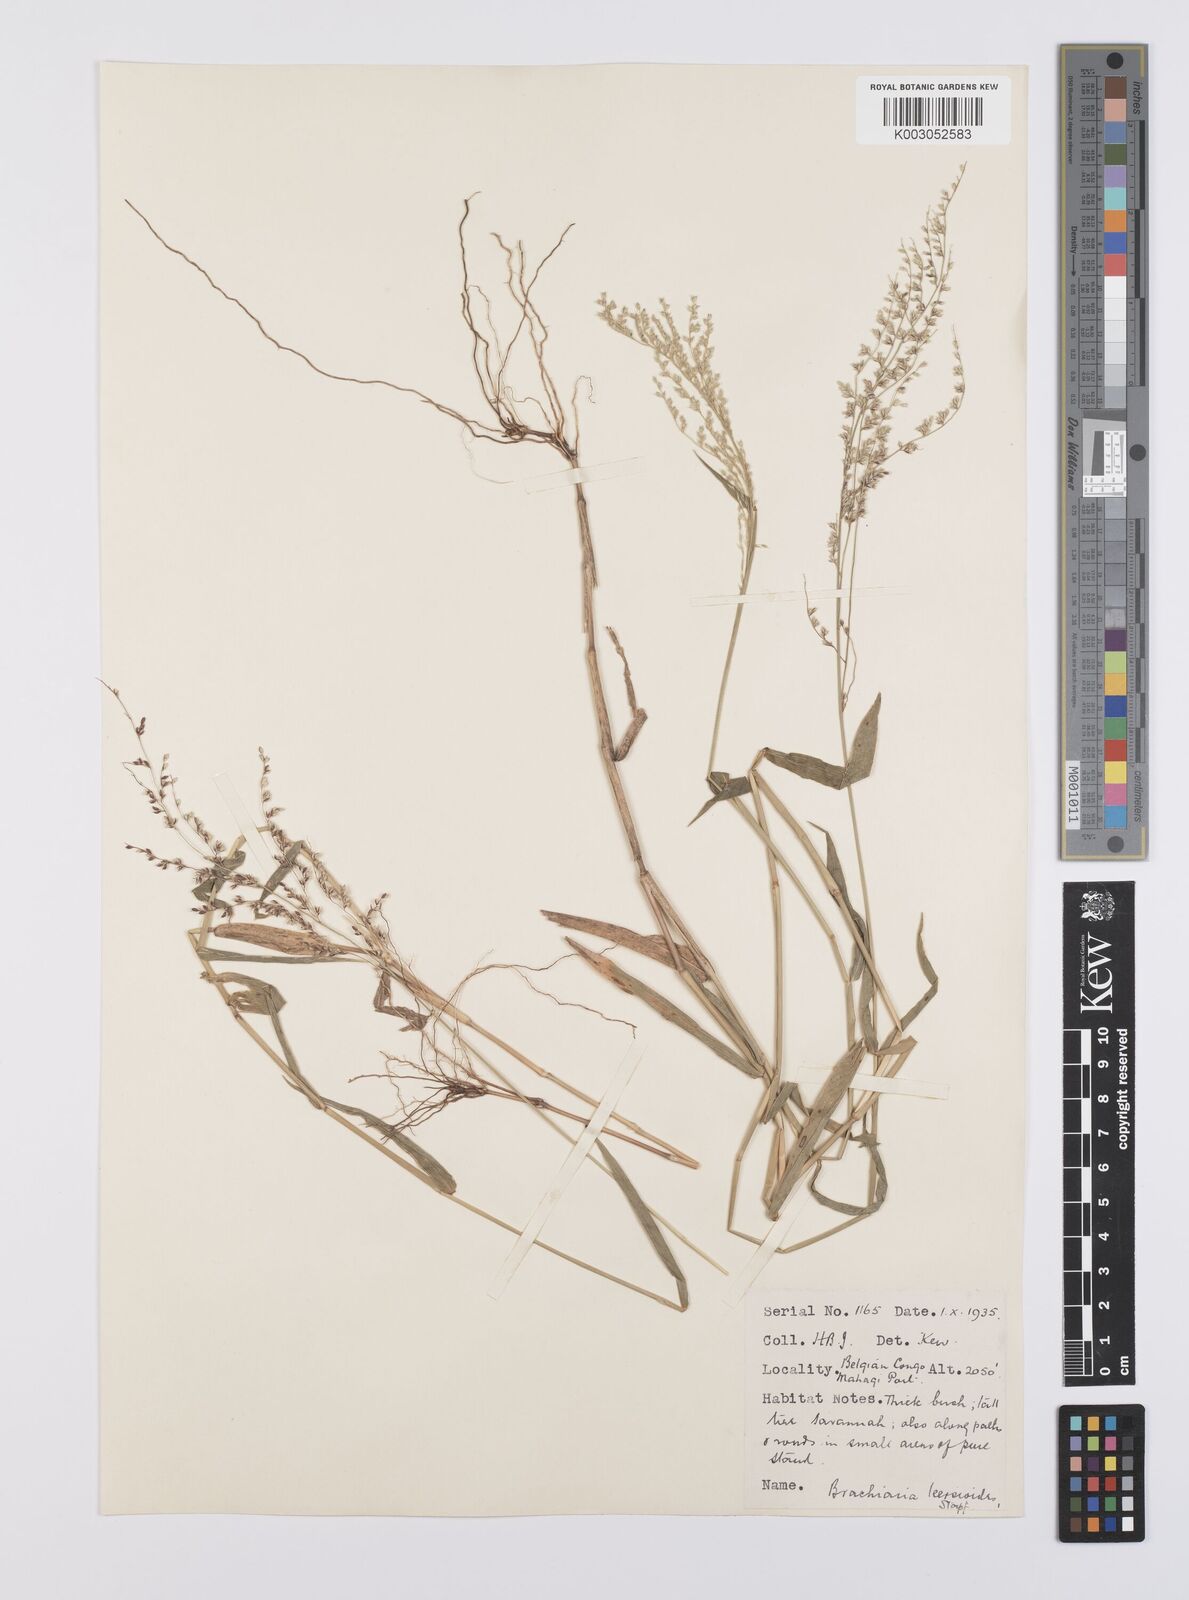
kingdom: Plantae
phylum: Tracheophyta
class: Liliopsida
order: Poales
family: Poaceae
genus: Urochloa
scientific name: Urochloa comata
